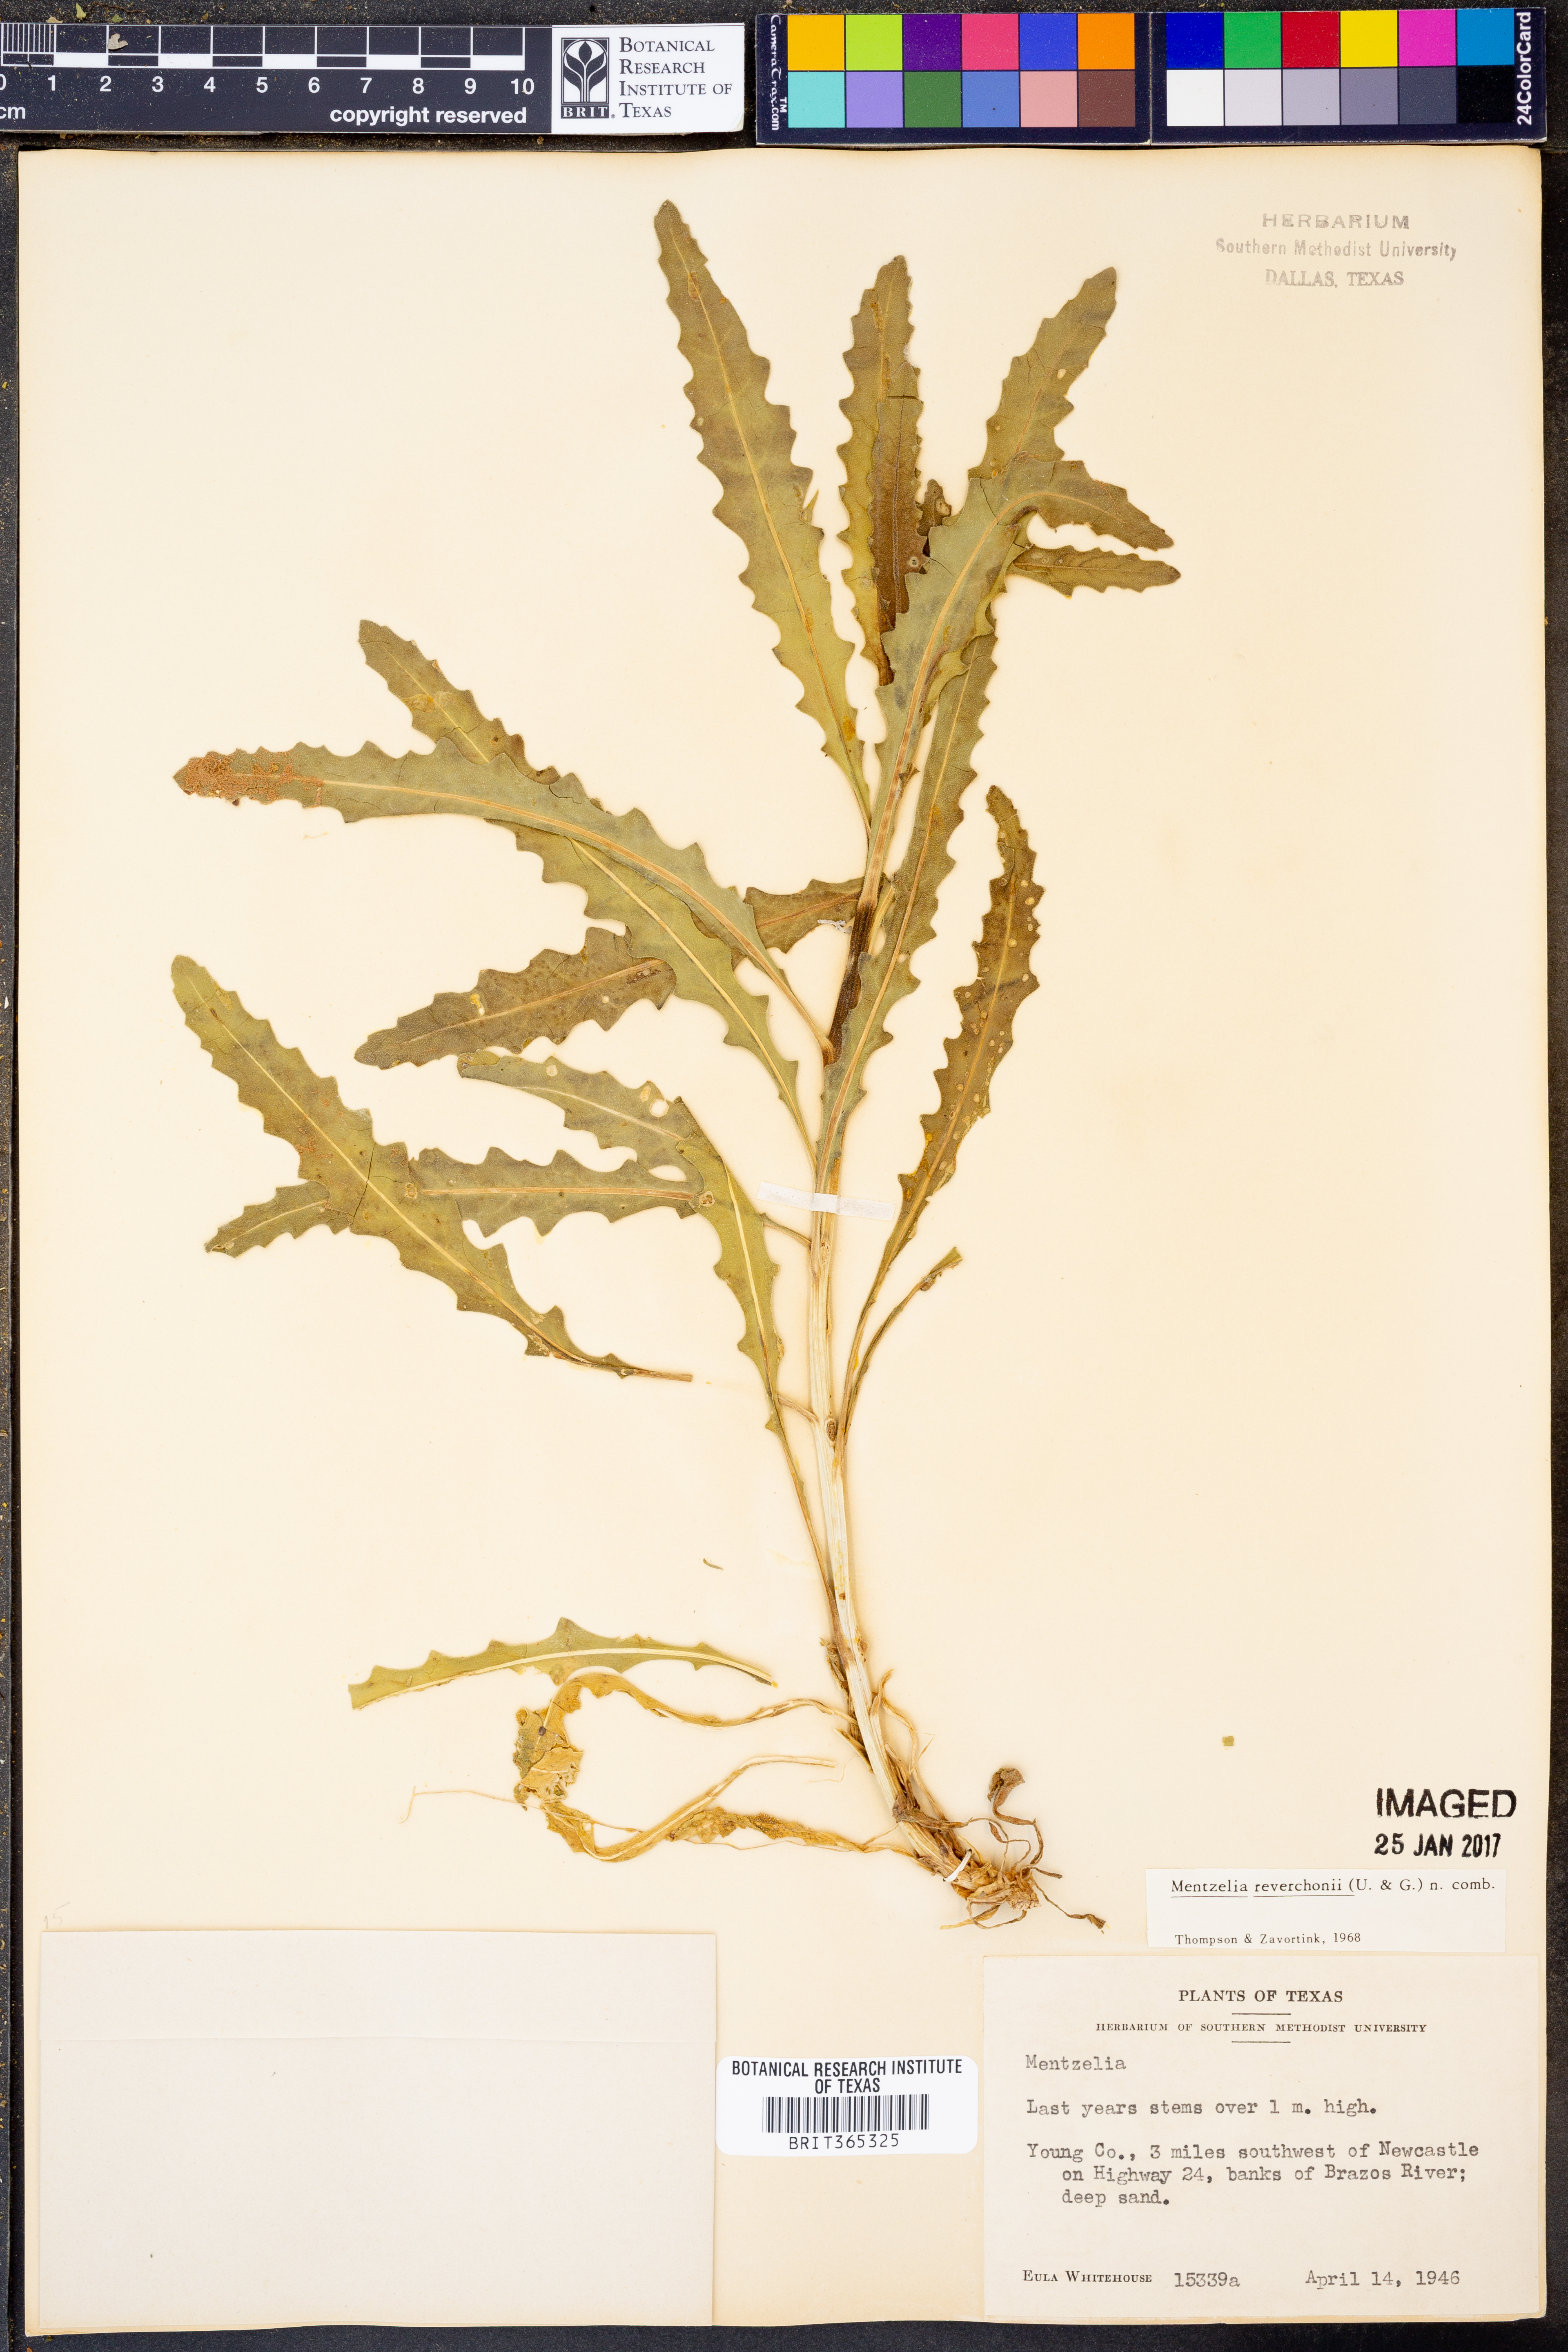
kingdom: Plantae
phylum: Tracheophyta
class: Magnoliopsida
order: Cornales
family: Loasaceae
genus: Mentzelia
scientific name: Mentzelia reverchonii
